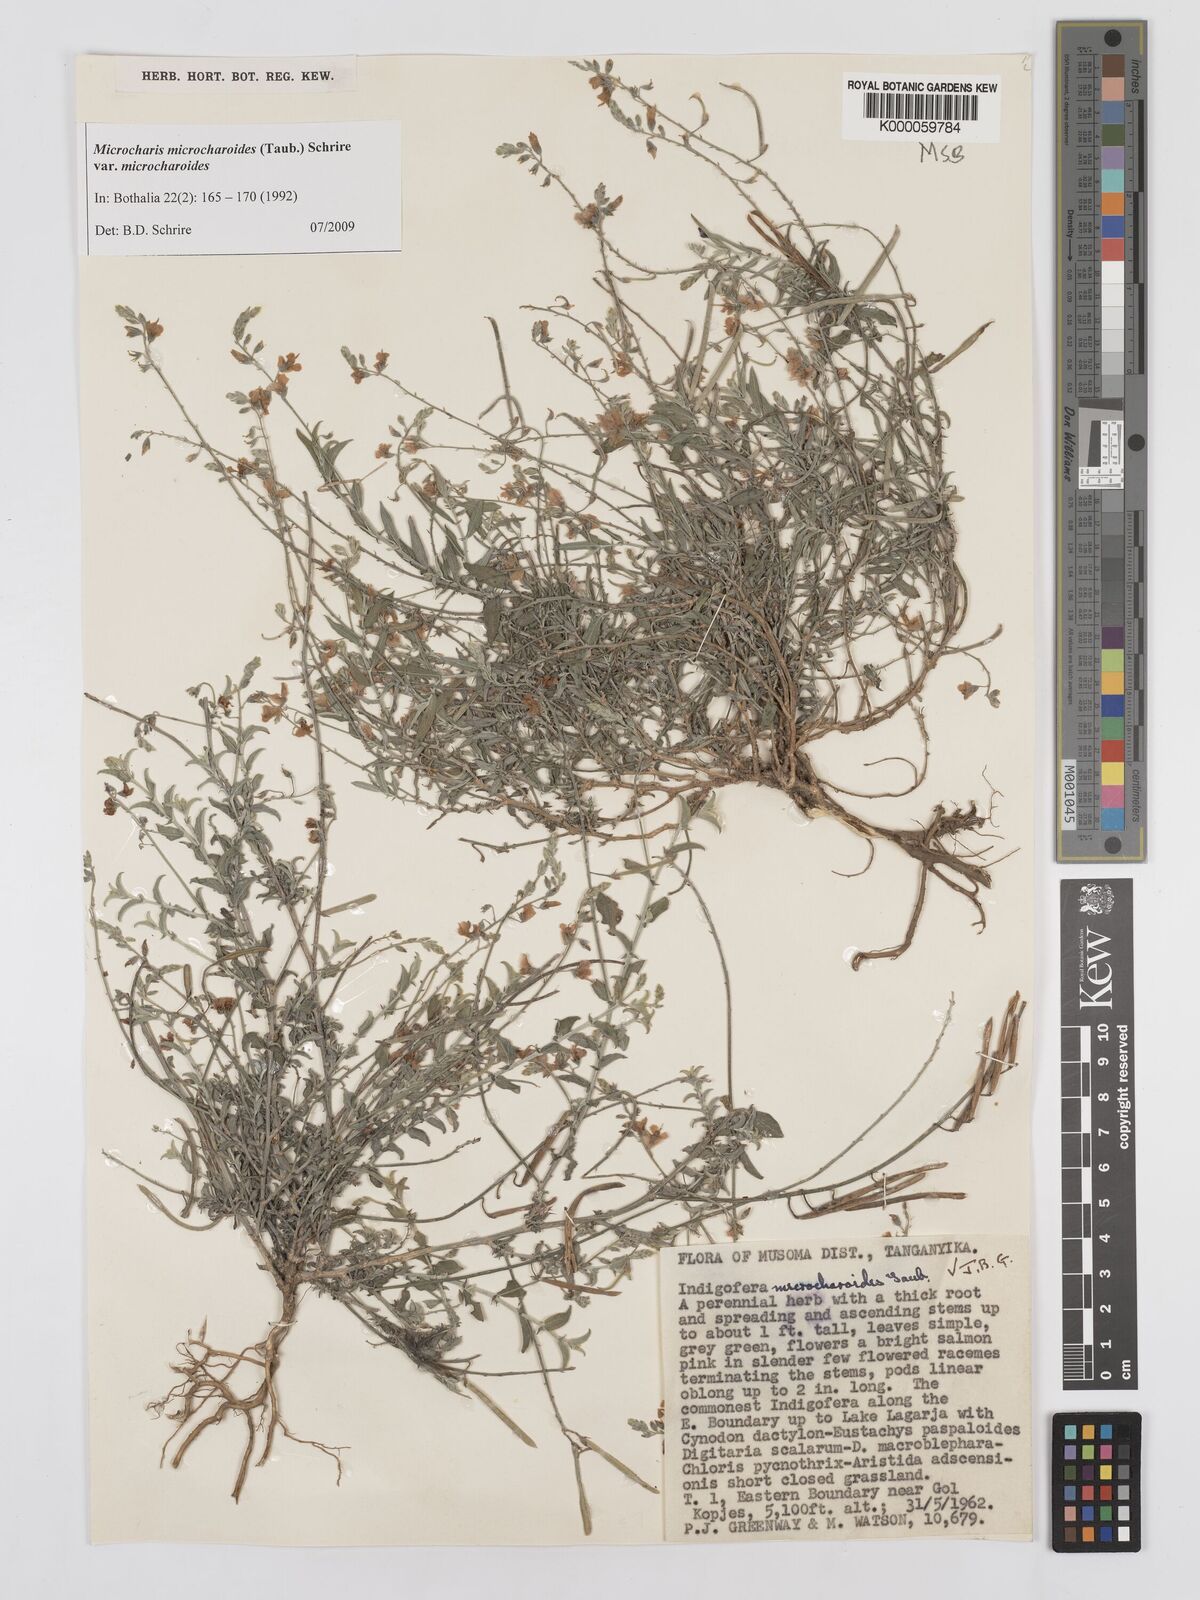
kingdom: Plantae
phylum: Tracheophyta
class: Magnoliopsida
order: Fabales
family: Fabaceae
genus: Microcharis
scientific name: Microcharis microcharoides
